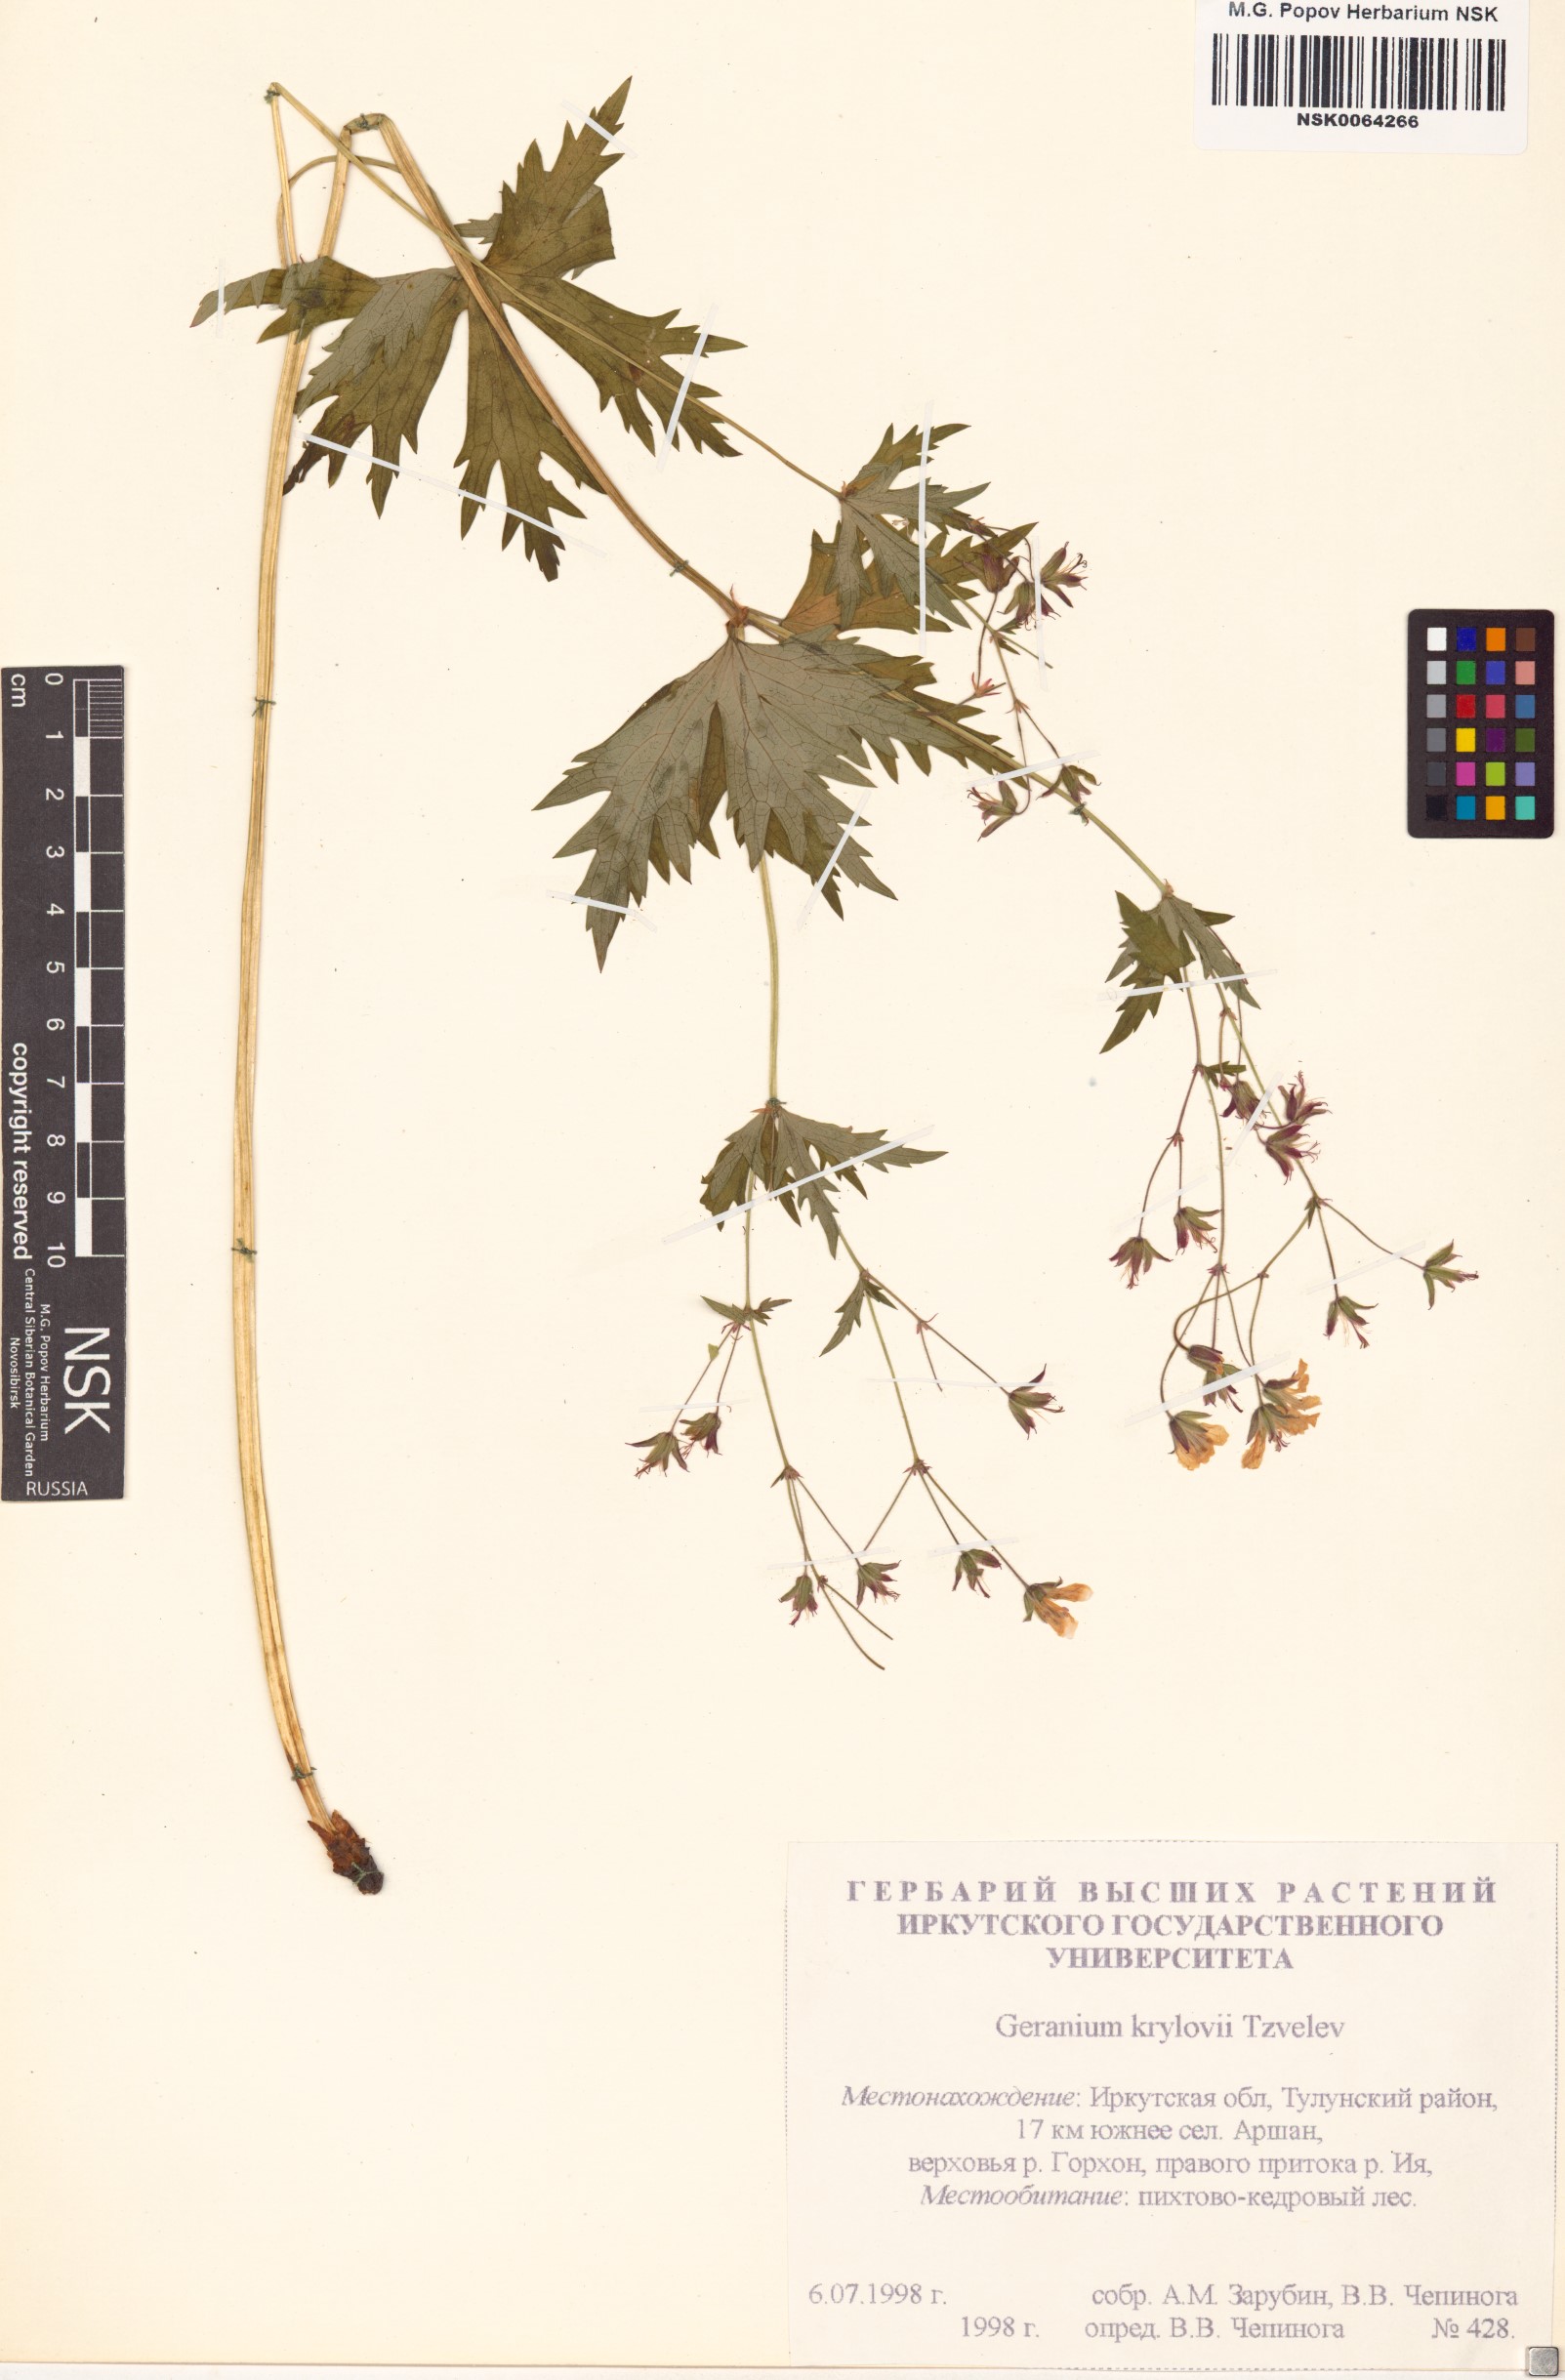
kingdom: Plantae
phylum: Tracheophyta
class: Magnoliopsida
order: Geraniales
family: Geraniaceae
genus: Geranium
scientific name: Geranium sylvaticum
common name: Wood crane's-bill
